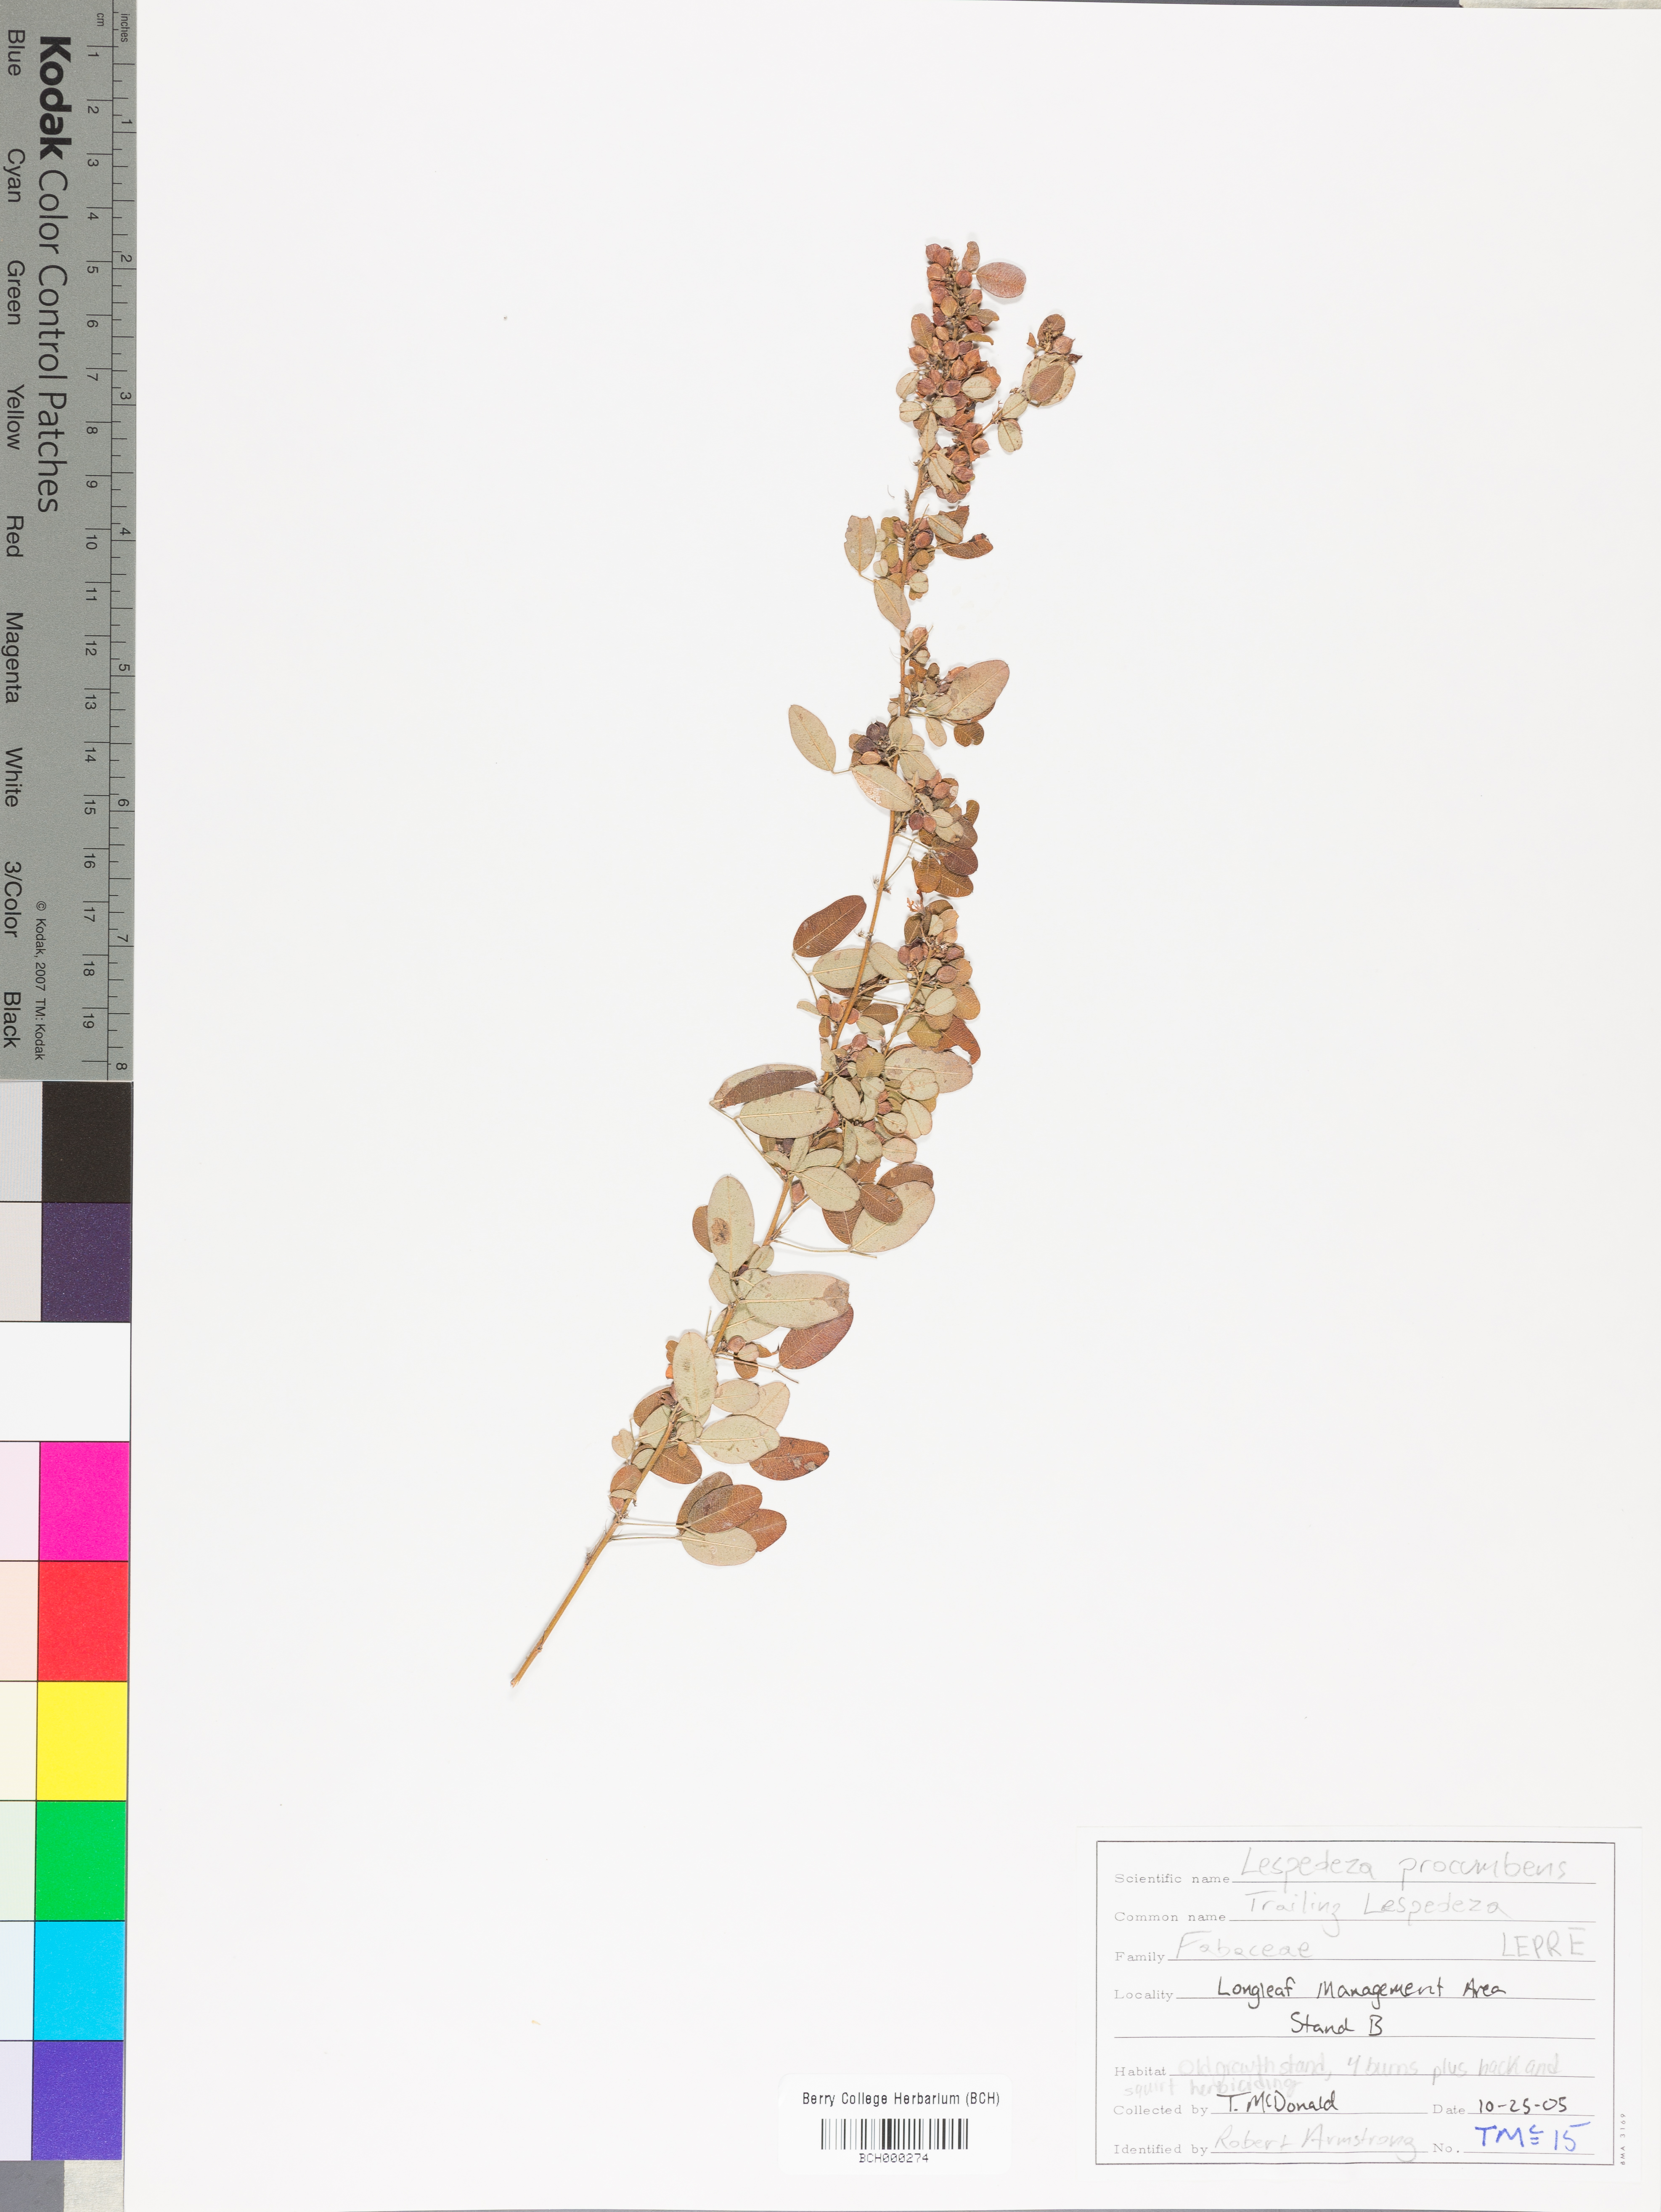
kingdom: Plantae
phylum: Tracheophyta
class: Magnoliopsida
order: Fabales
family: Fabaceae
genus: Lespedeza
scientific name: Lespedeza brittonii
